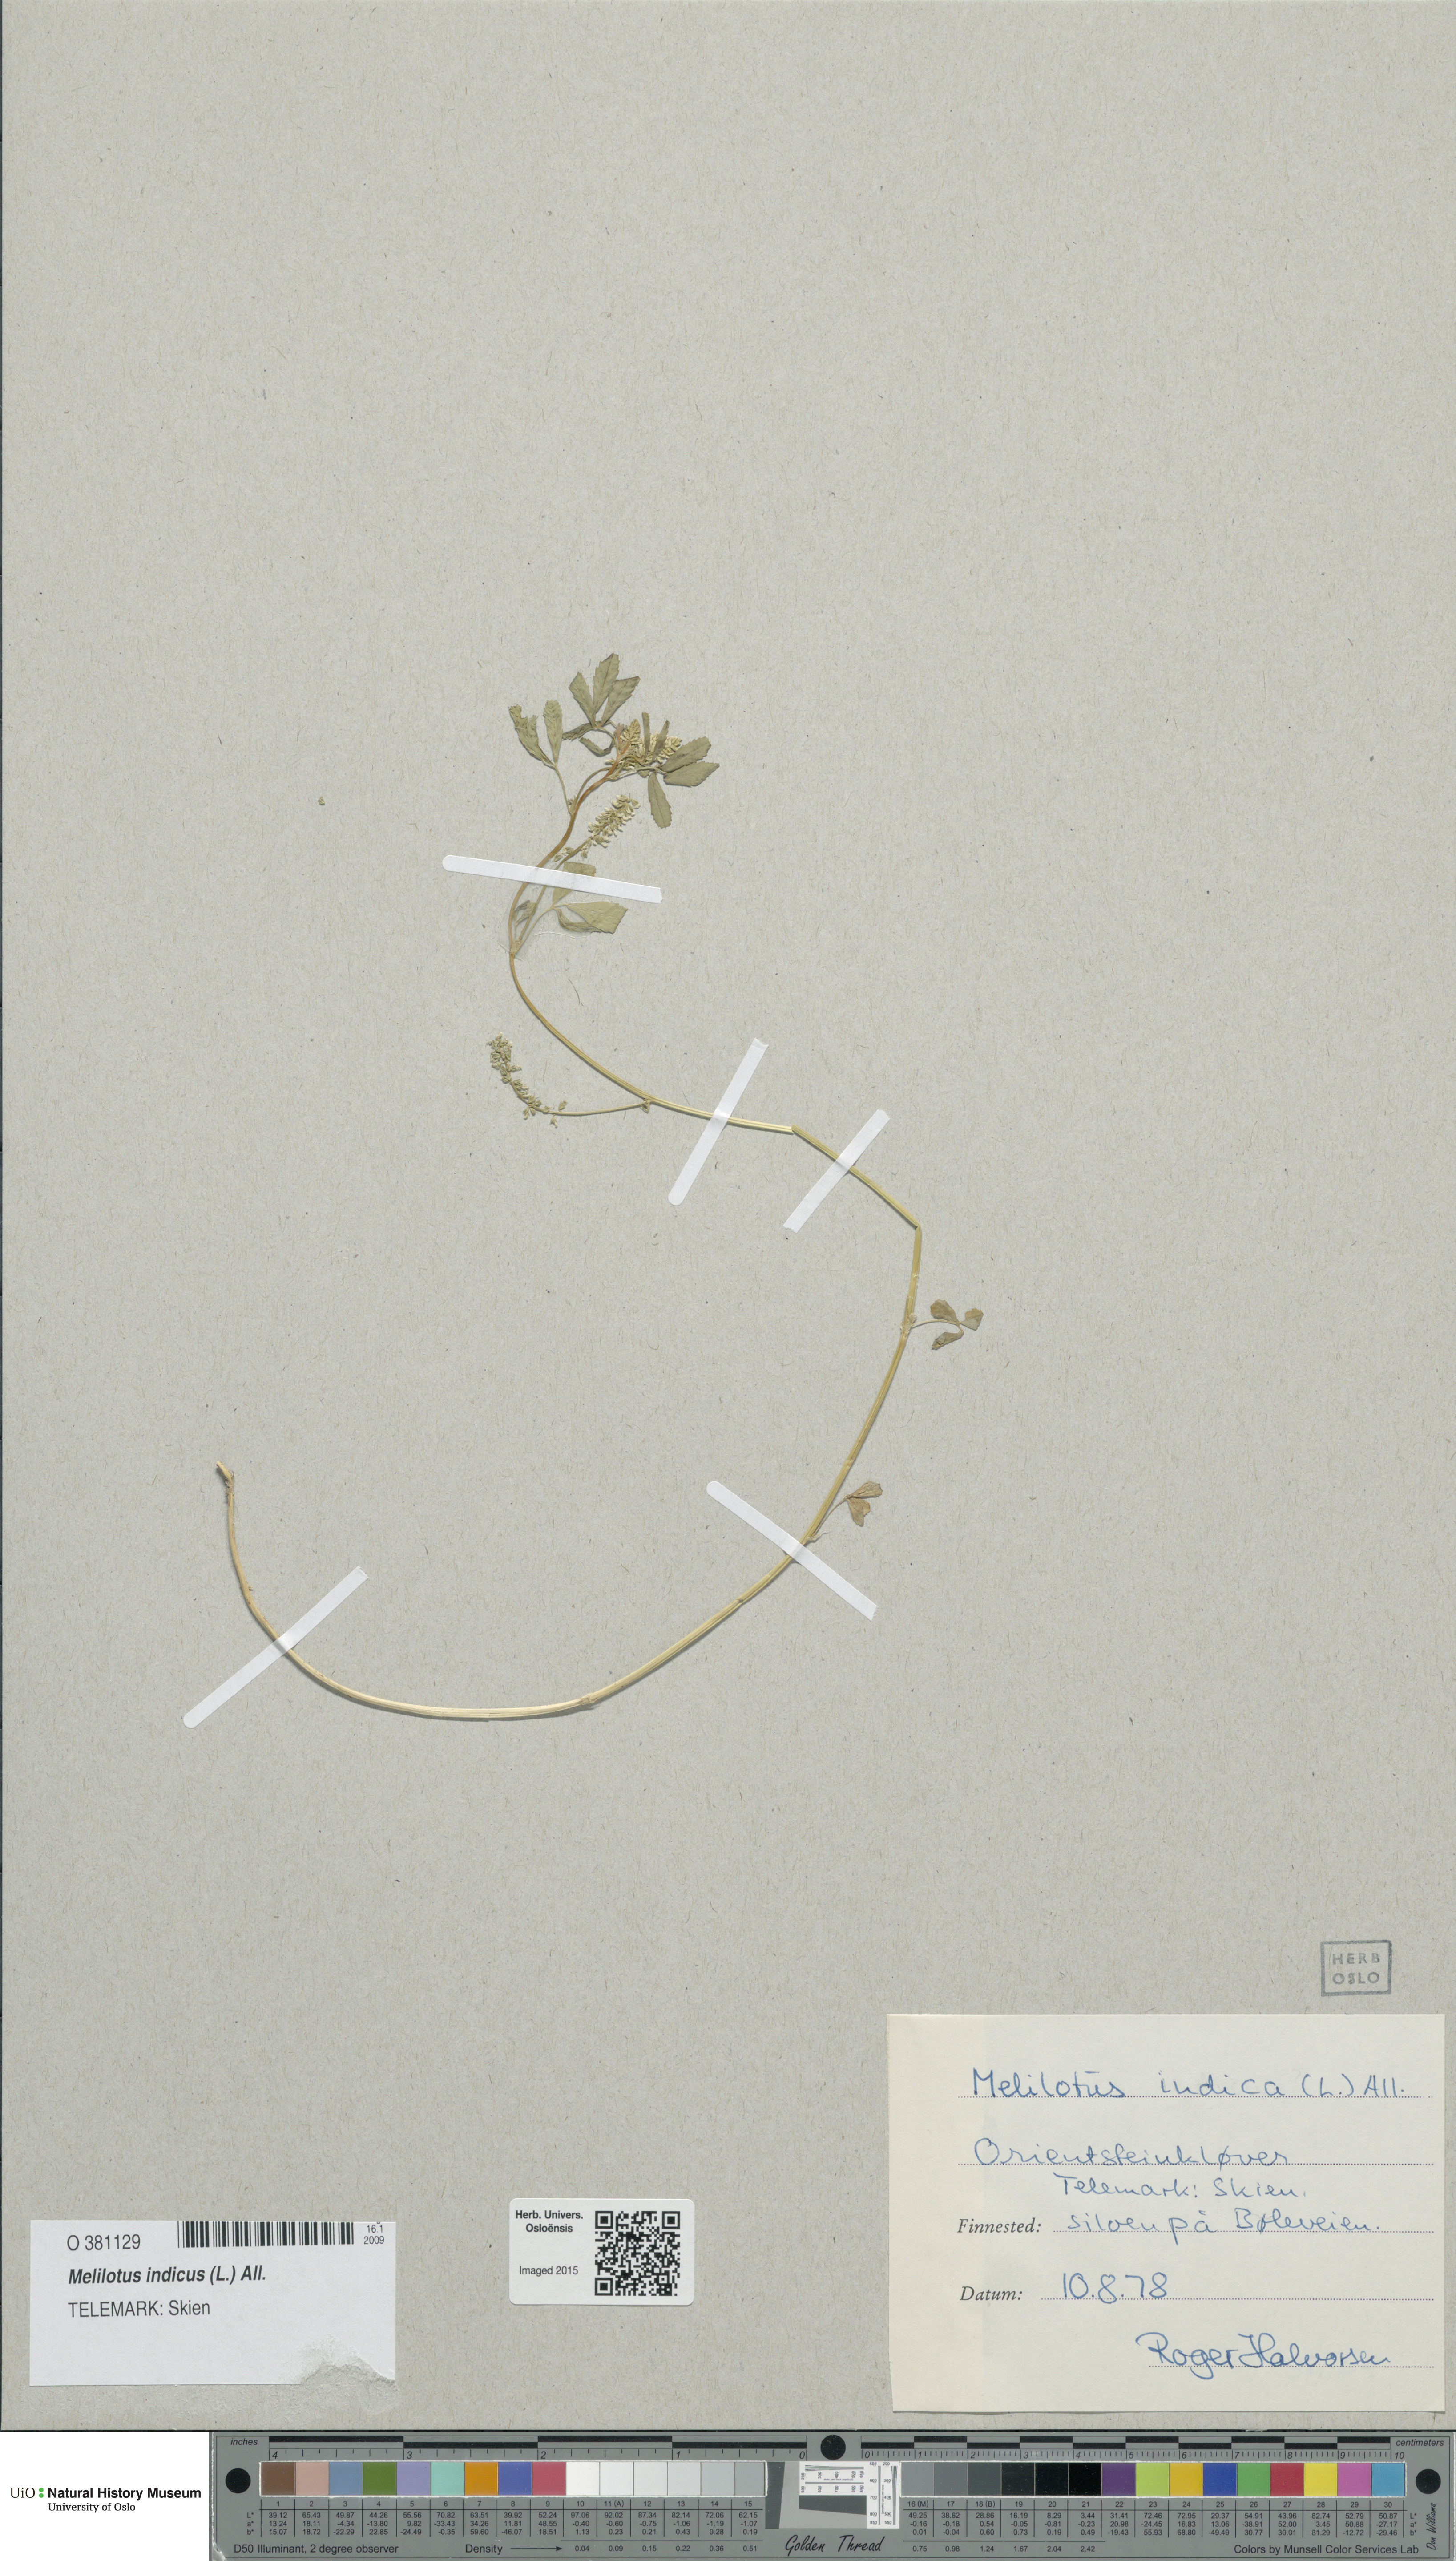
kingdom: Plantae
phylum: Tracheophyta
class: Magnoliopsida
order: Fabales
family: Fabaceae
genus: Melilotus
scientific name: Melilotus indicus
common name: Small melilot
